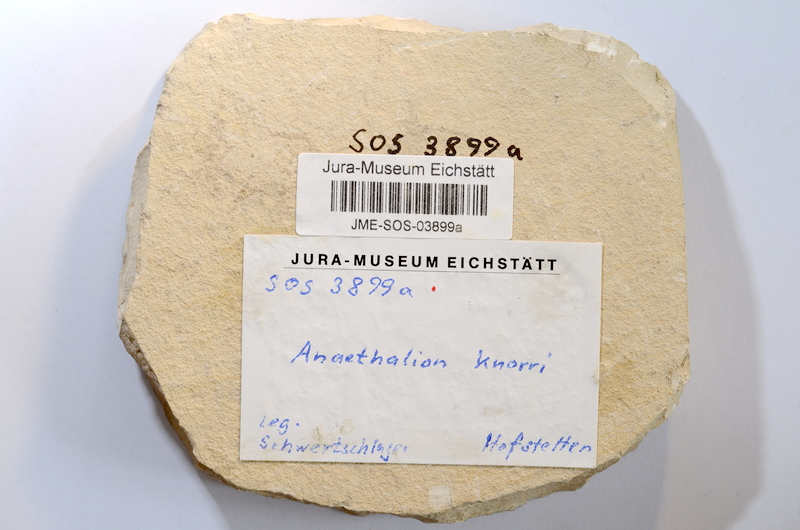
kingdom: Animalia
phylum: Chordata
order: Elopiformes
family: Anaethalionidae
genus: Anaethalion
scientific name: Anaethalion knorri
